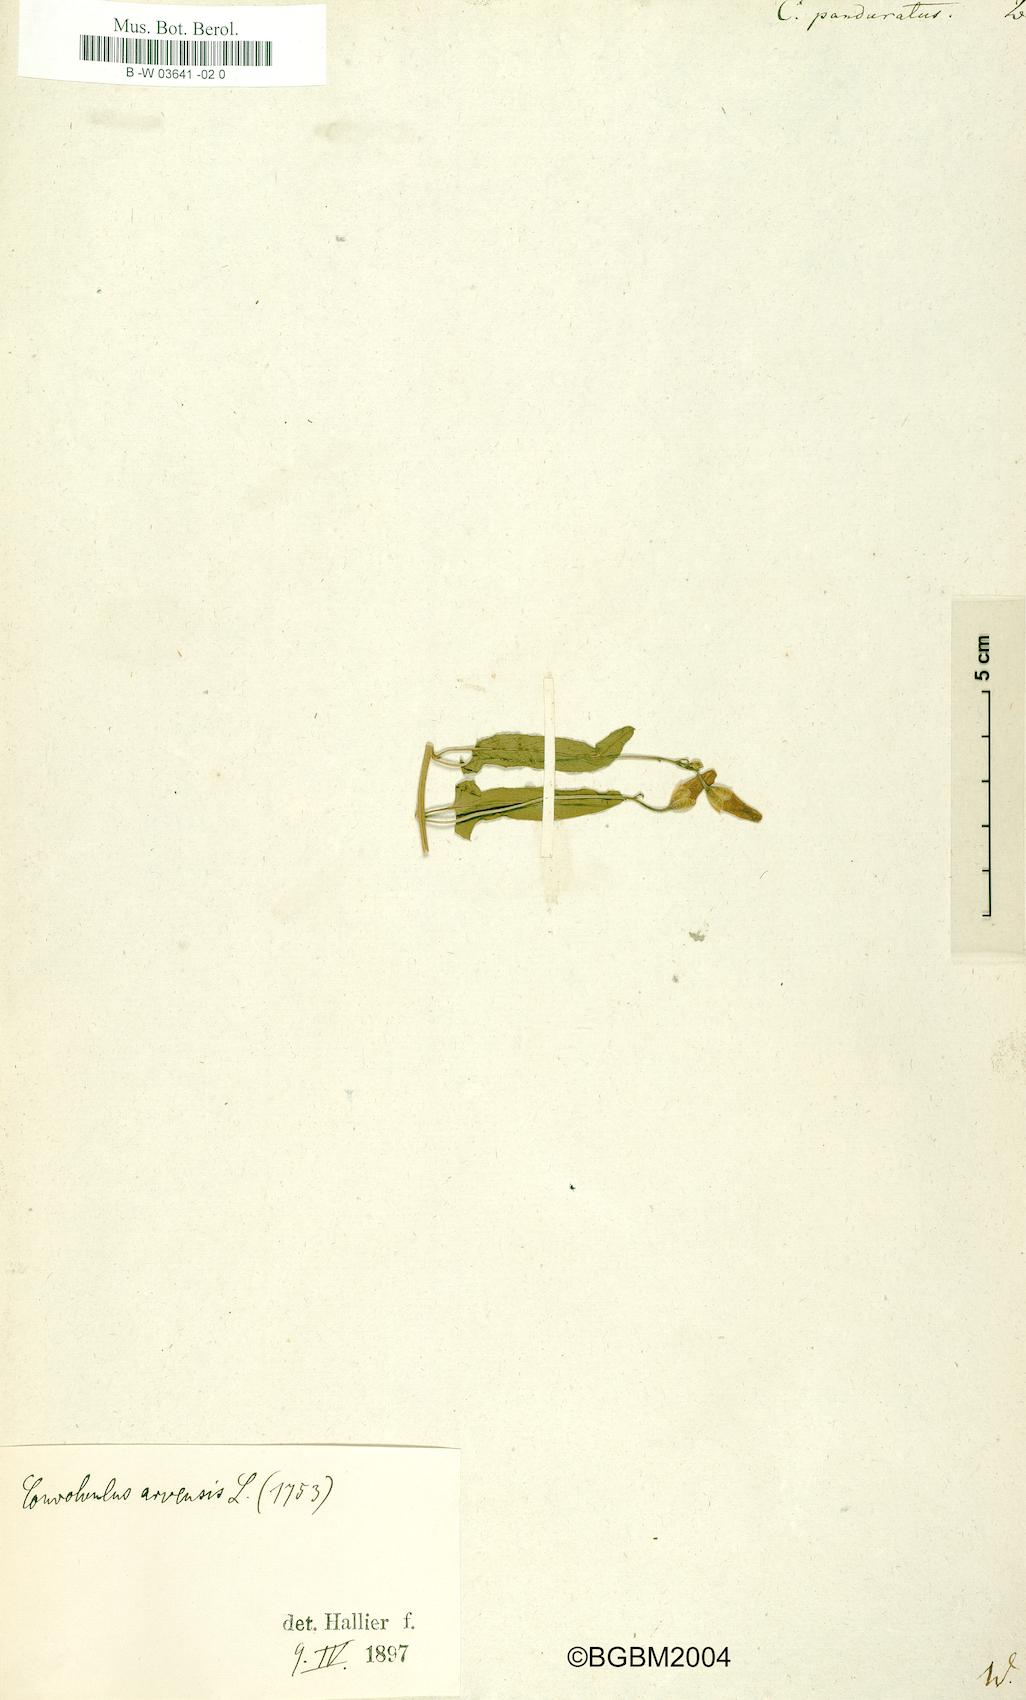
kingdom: Plantae
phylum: Tracheophyta
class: Magnoliopsida
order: Solanales
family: Convolvulaceae
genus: Convolvulus
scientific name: Convolvulus panduratus
